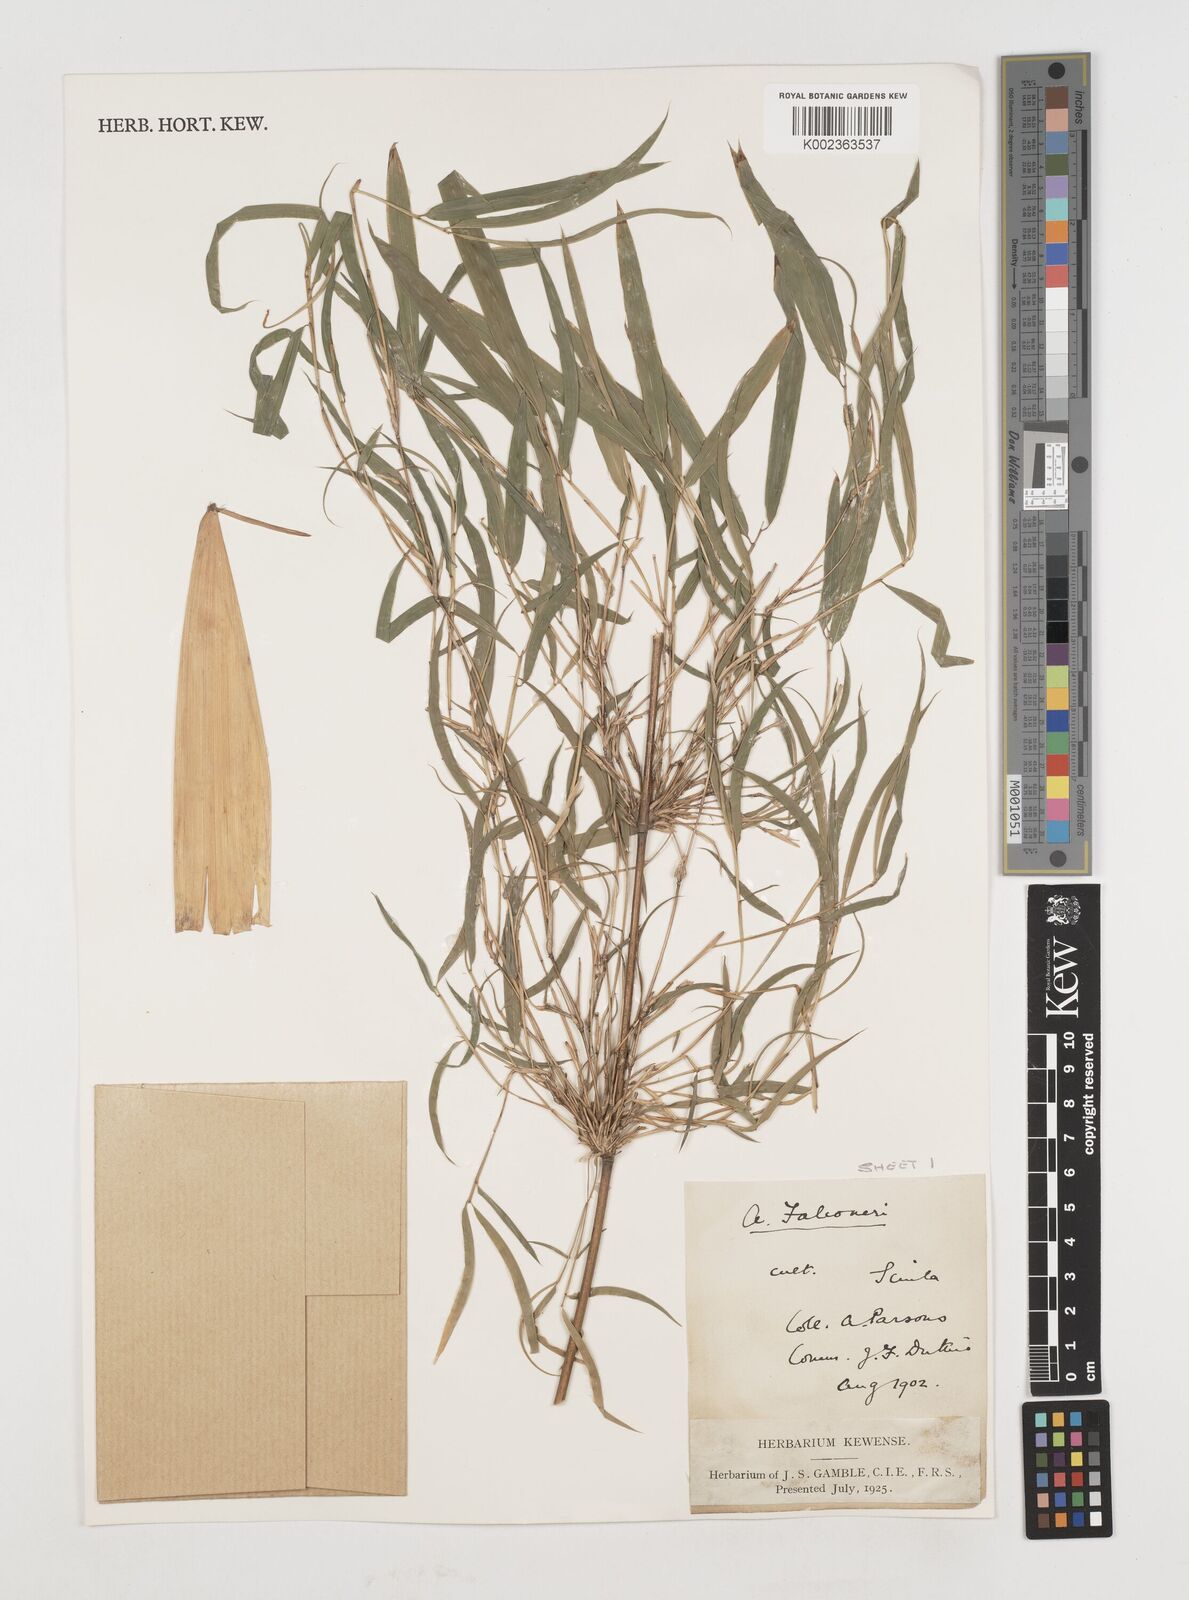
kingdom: Plantae
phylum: Tracheophyta
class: Liliopsida
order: Poales
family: Poaceae
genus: Himalayacalamus
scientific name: Himalayacalamus falconeri
